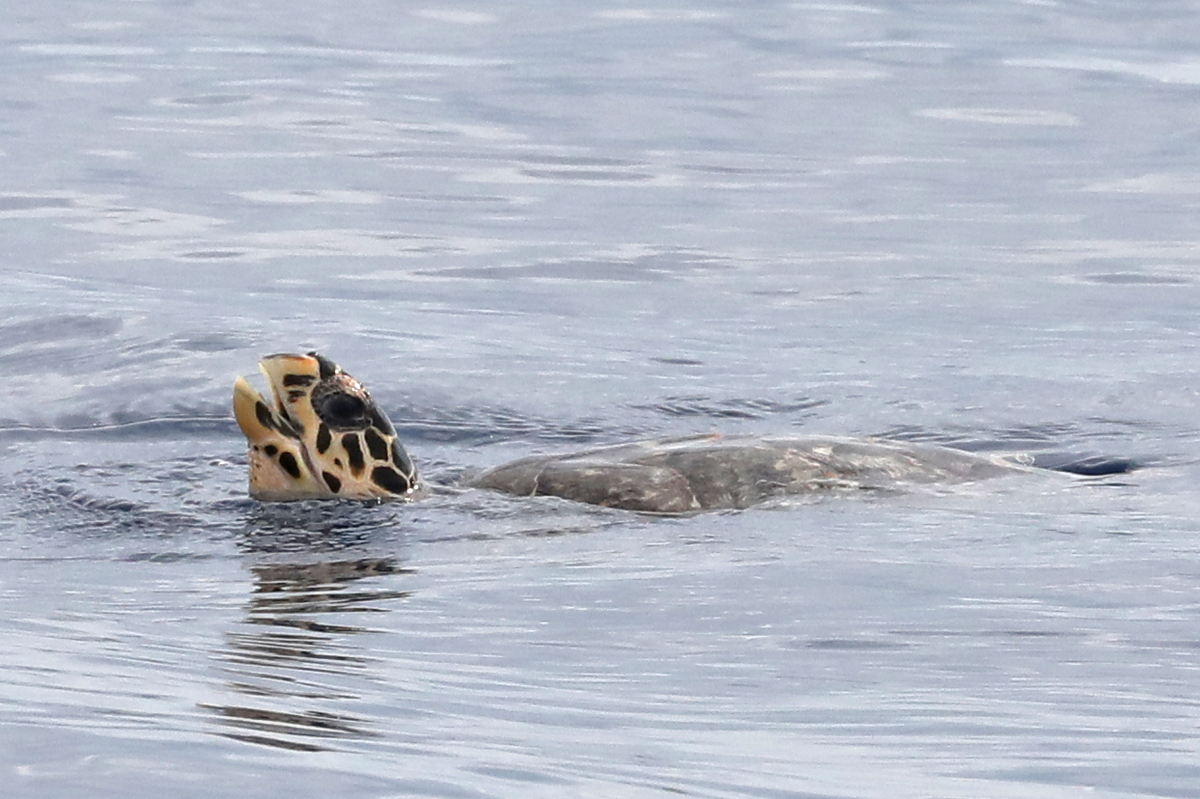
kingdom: Animalia
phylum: Chordata
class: Testudines
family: Cheloniidae
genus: Eretmochelys
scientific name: Eretmochelys imbricata
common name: Hawksbill Sea Turtle
